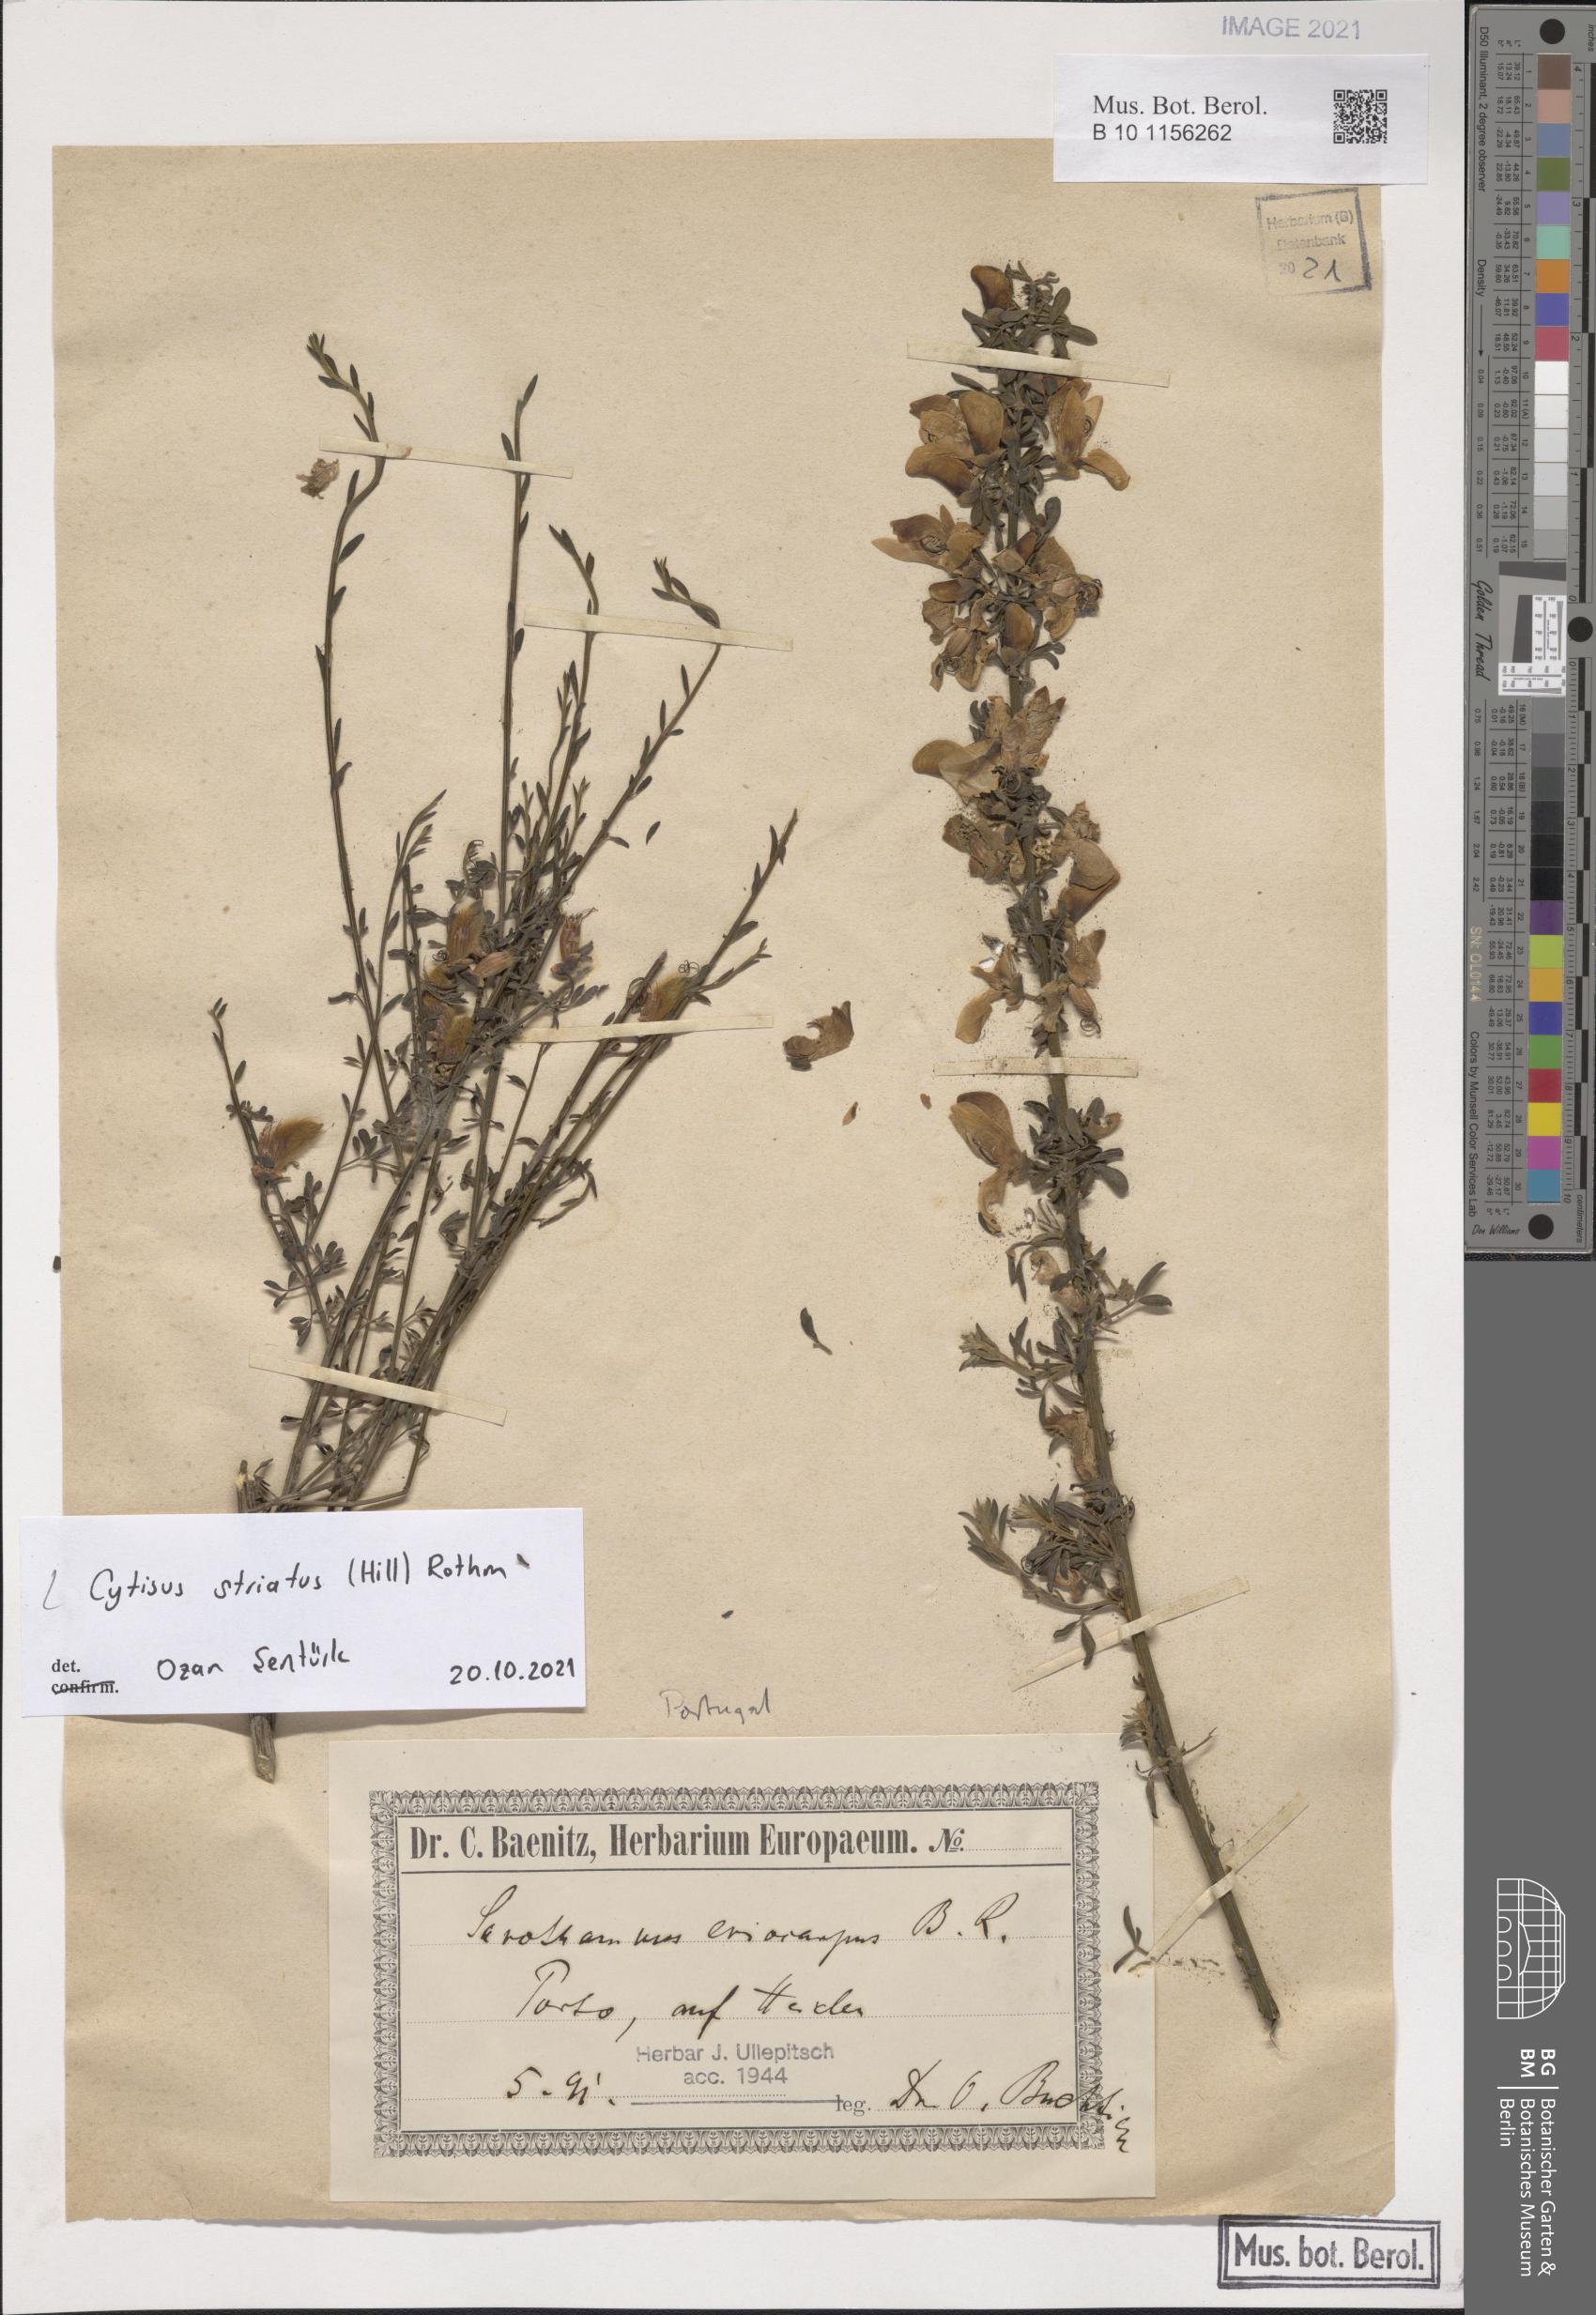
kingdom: Plantae
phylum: Tracheophyta
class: Magnoliopsida
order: Fabales
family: Fabaceae
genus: Cytisus
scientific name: Cytisus striatus
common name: Hairy-fruited broom
